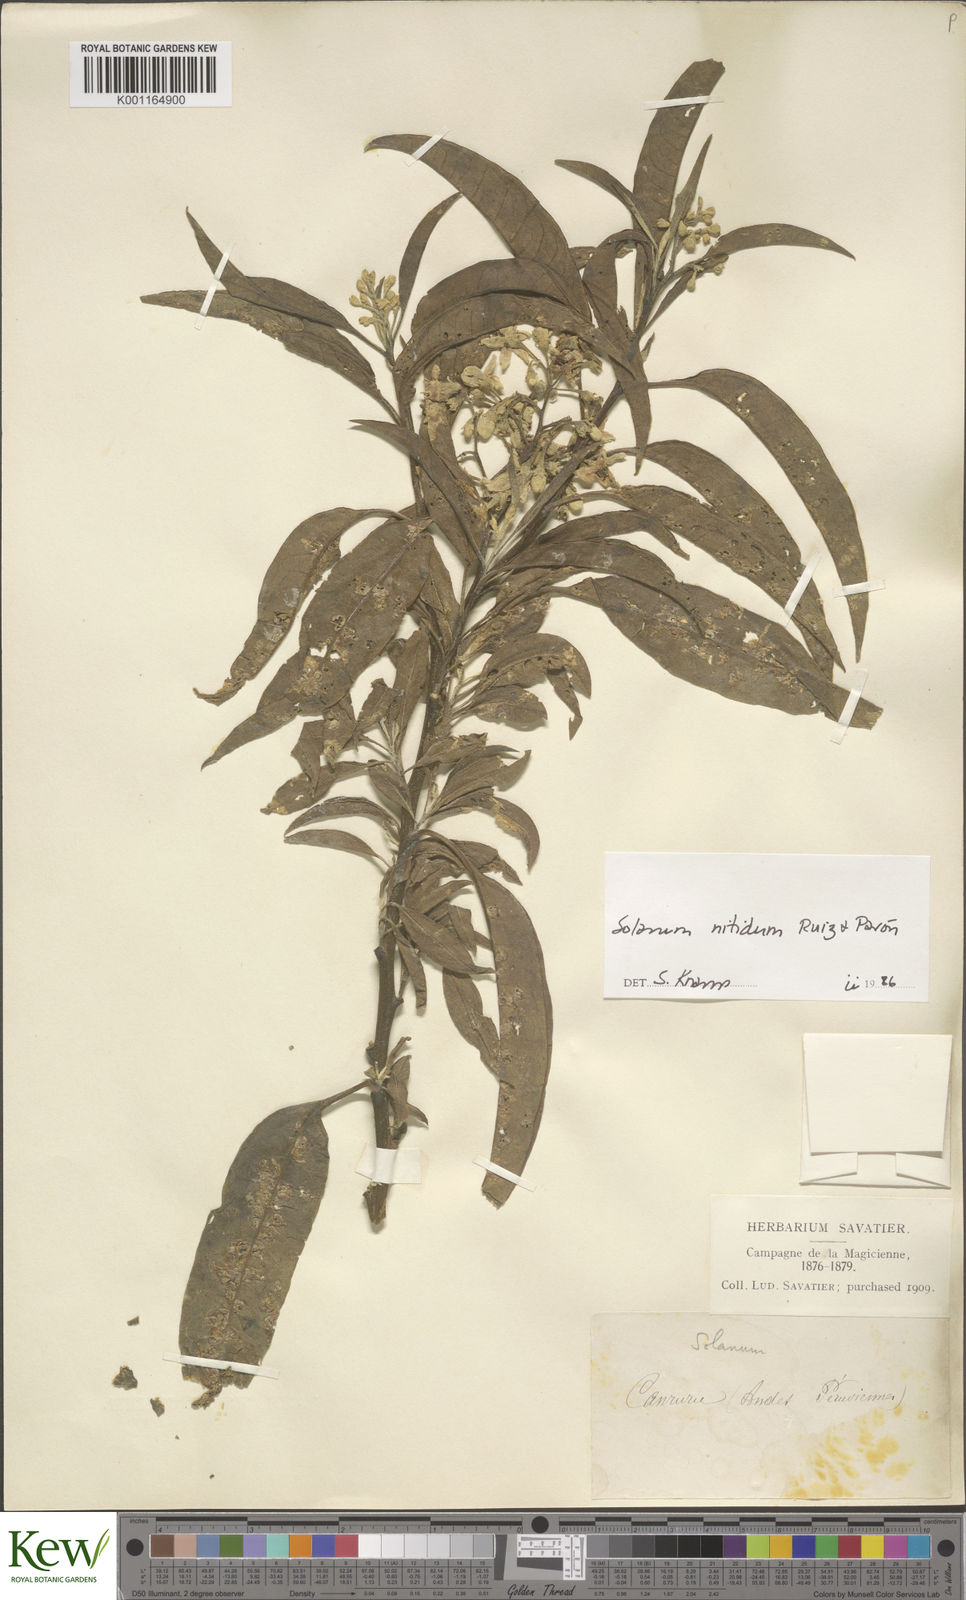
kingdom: Plantae
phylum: Tracheophyta
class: Magnoliopsida
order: Solanales
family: Solanaceae
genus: Solanum
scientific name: Solanum nitidum
